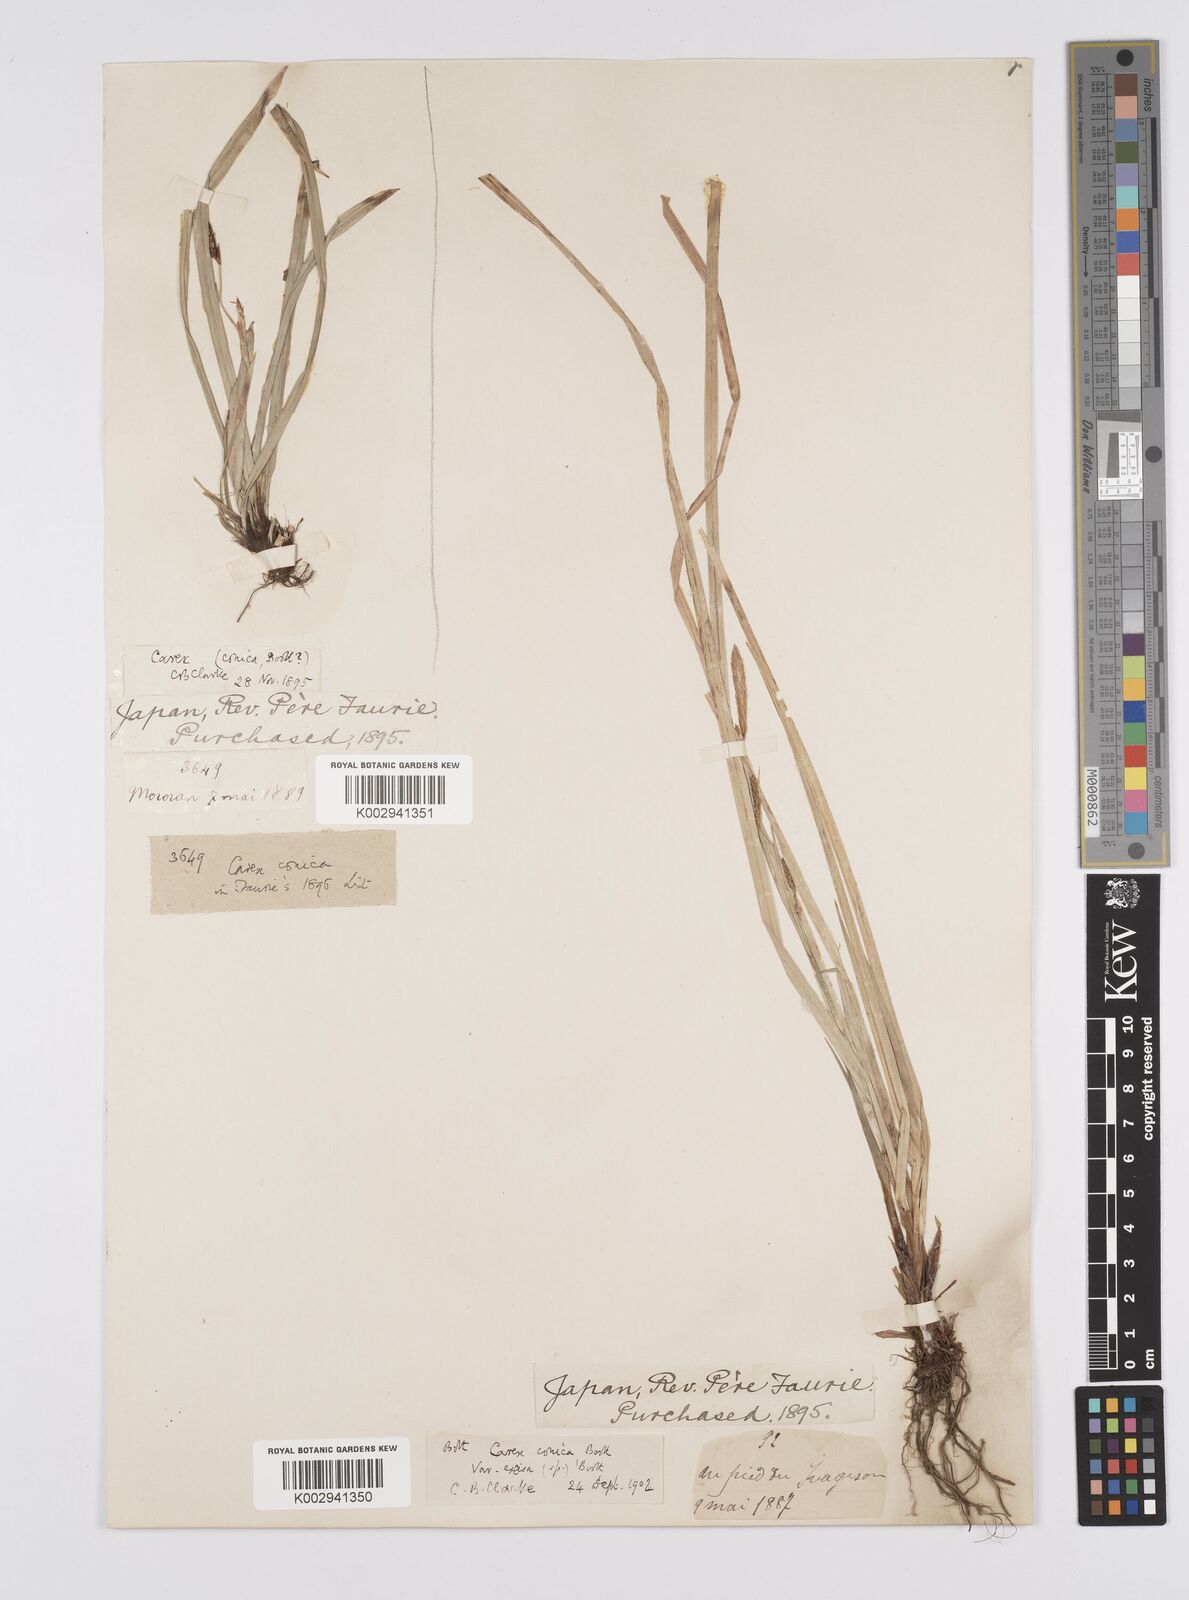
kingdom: Plantae
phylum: Tracheophyta
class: Liliopsida
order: Poales
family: Cyperaceae
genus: Carex
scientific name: Carex conica
